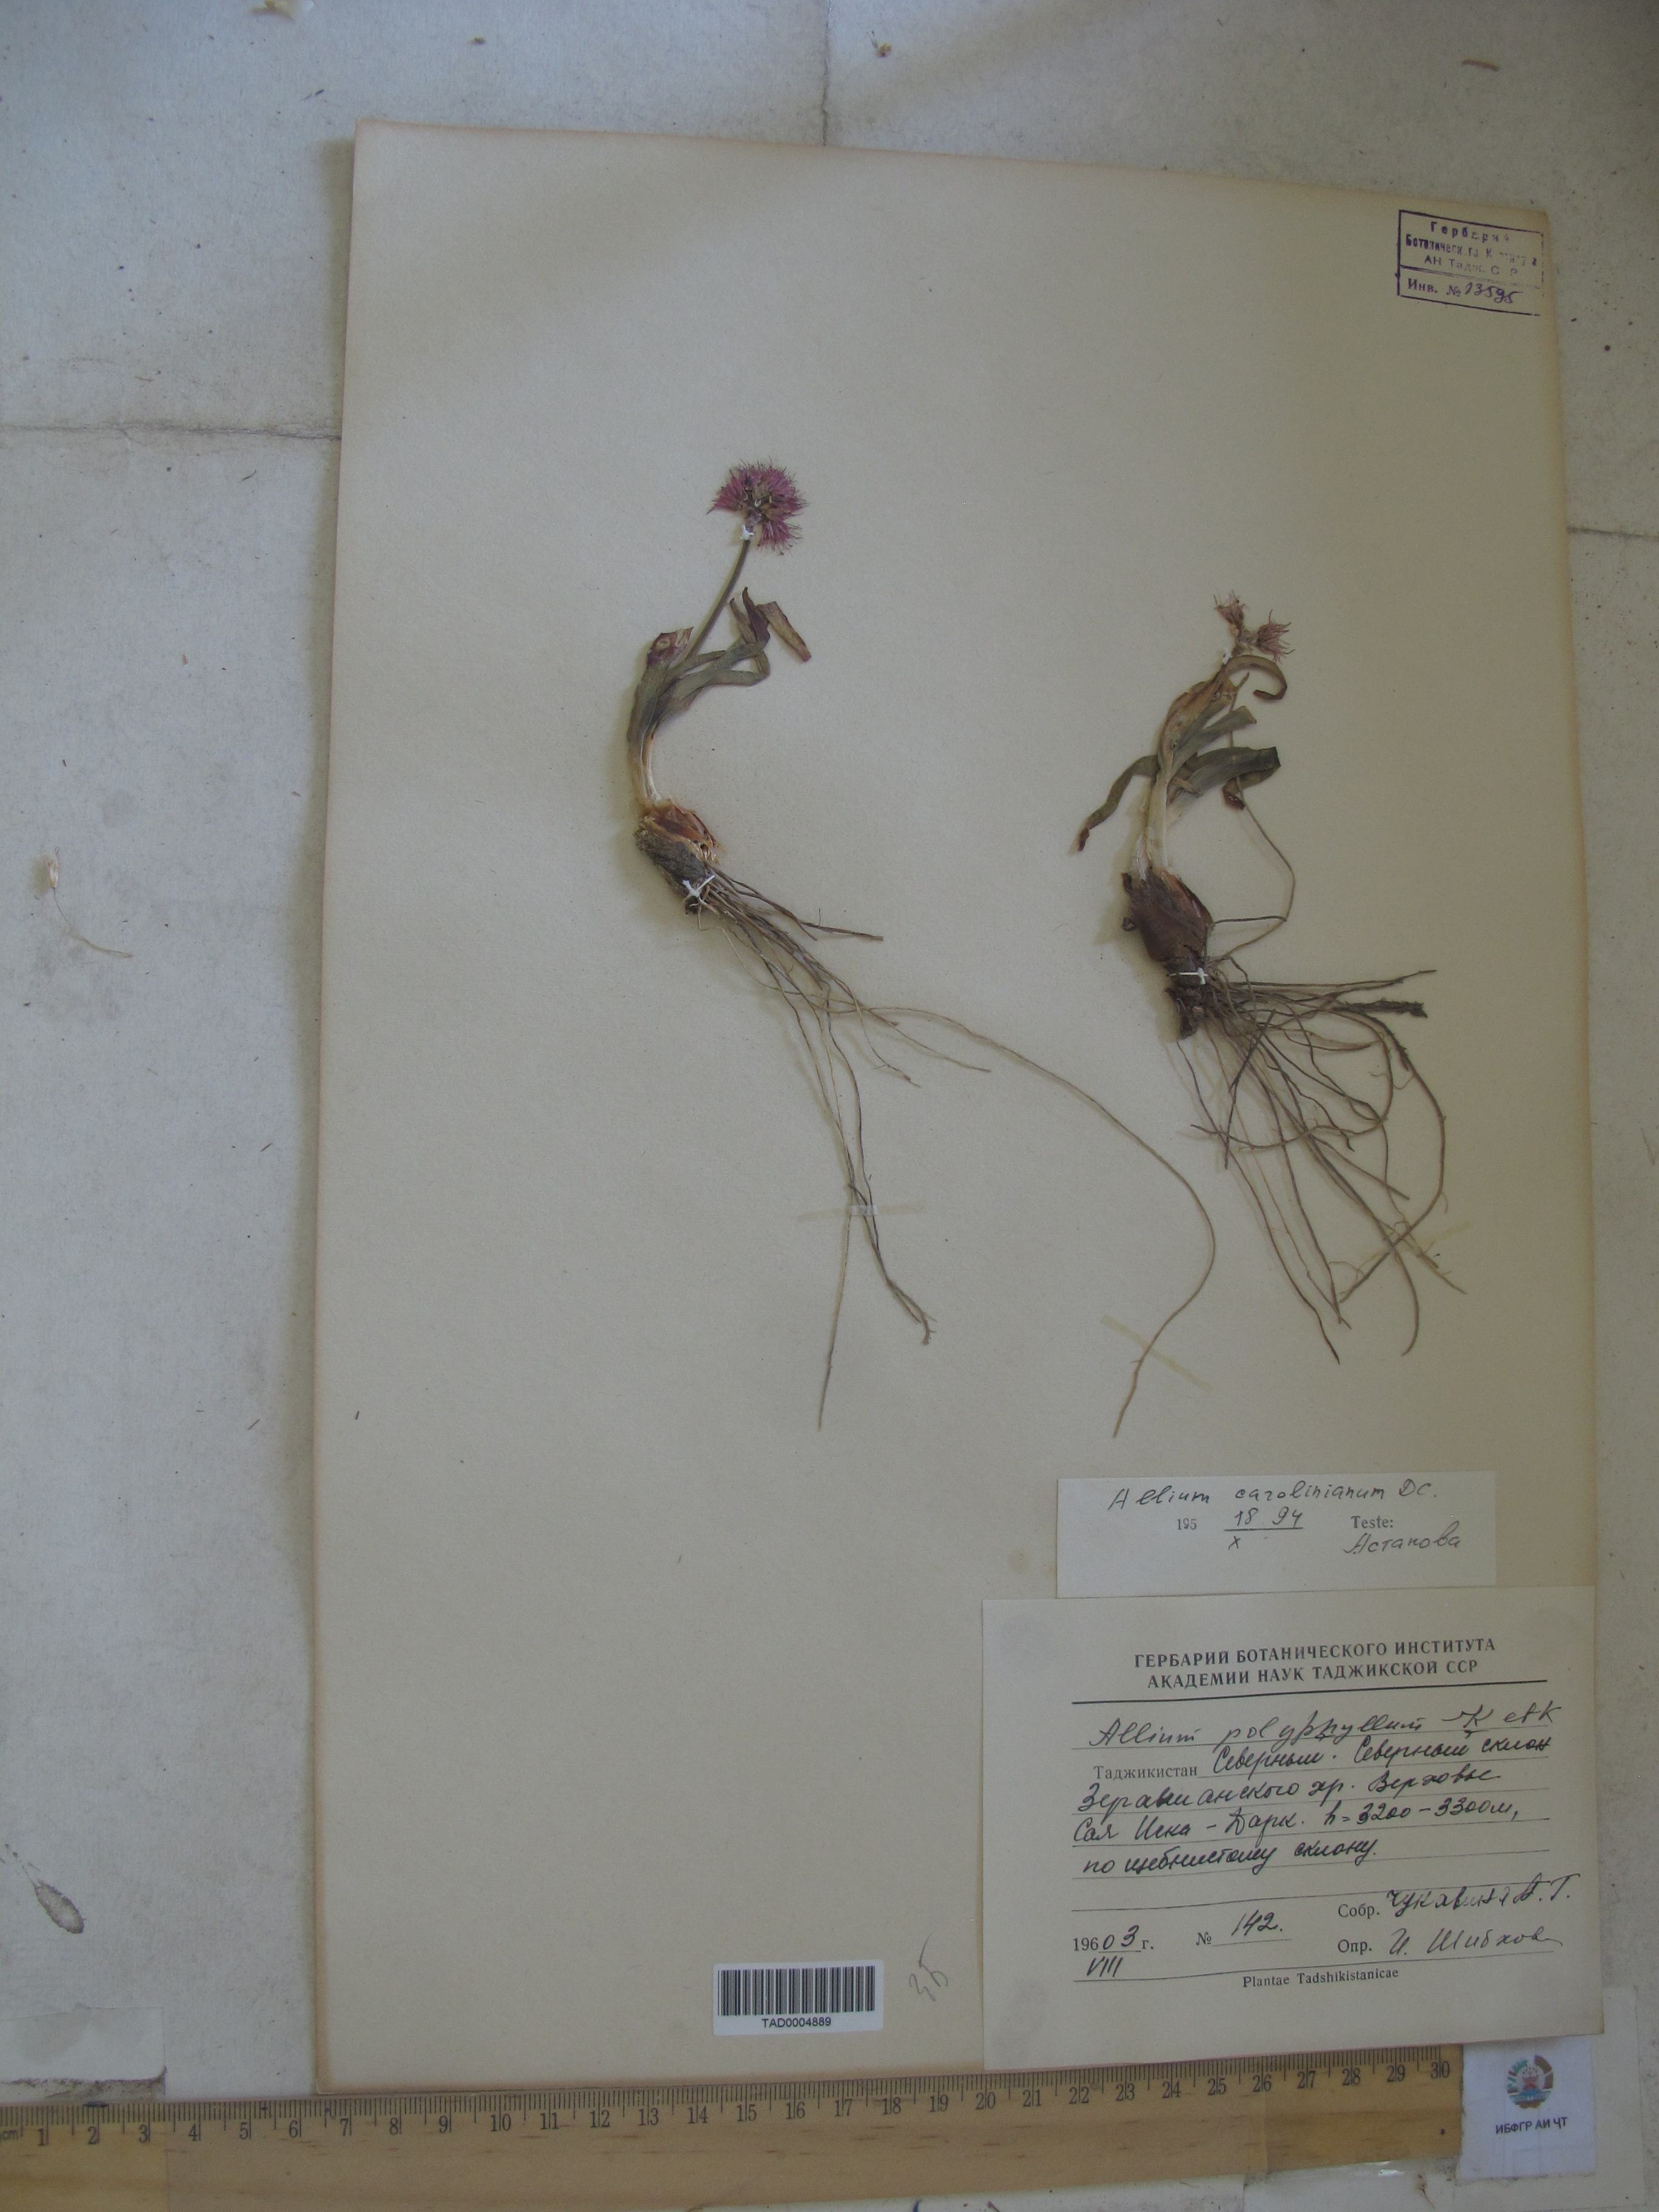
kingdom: Plantae
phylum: Tracheophyta
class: Liliopsida
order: Asparagales
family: Amaryllidaceae
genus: Allium
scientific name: Allium carolinianum
